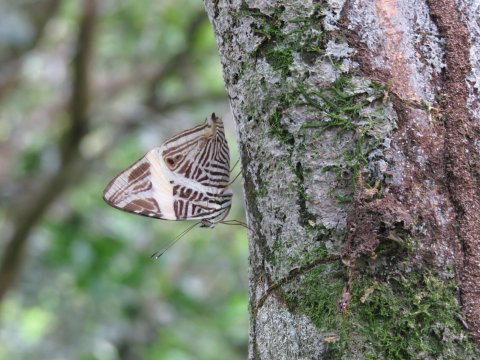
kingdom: Animalia
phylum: Arthropoda
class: Insecta
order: Lepidoptera
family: Nymphalidae
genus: Colobura
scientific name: Colobura dirce
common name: Dirce Beauty
